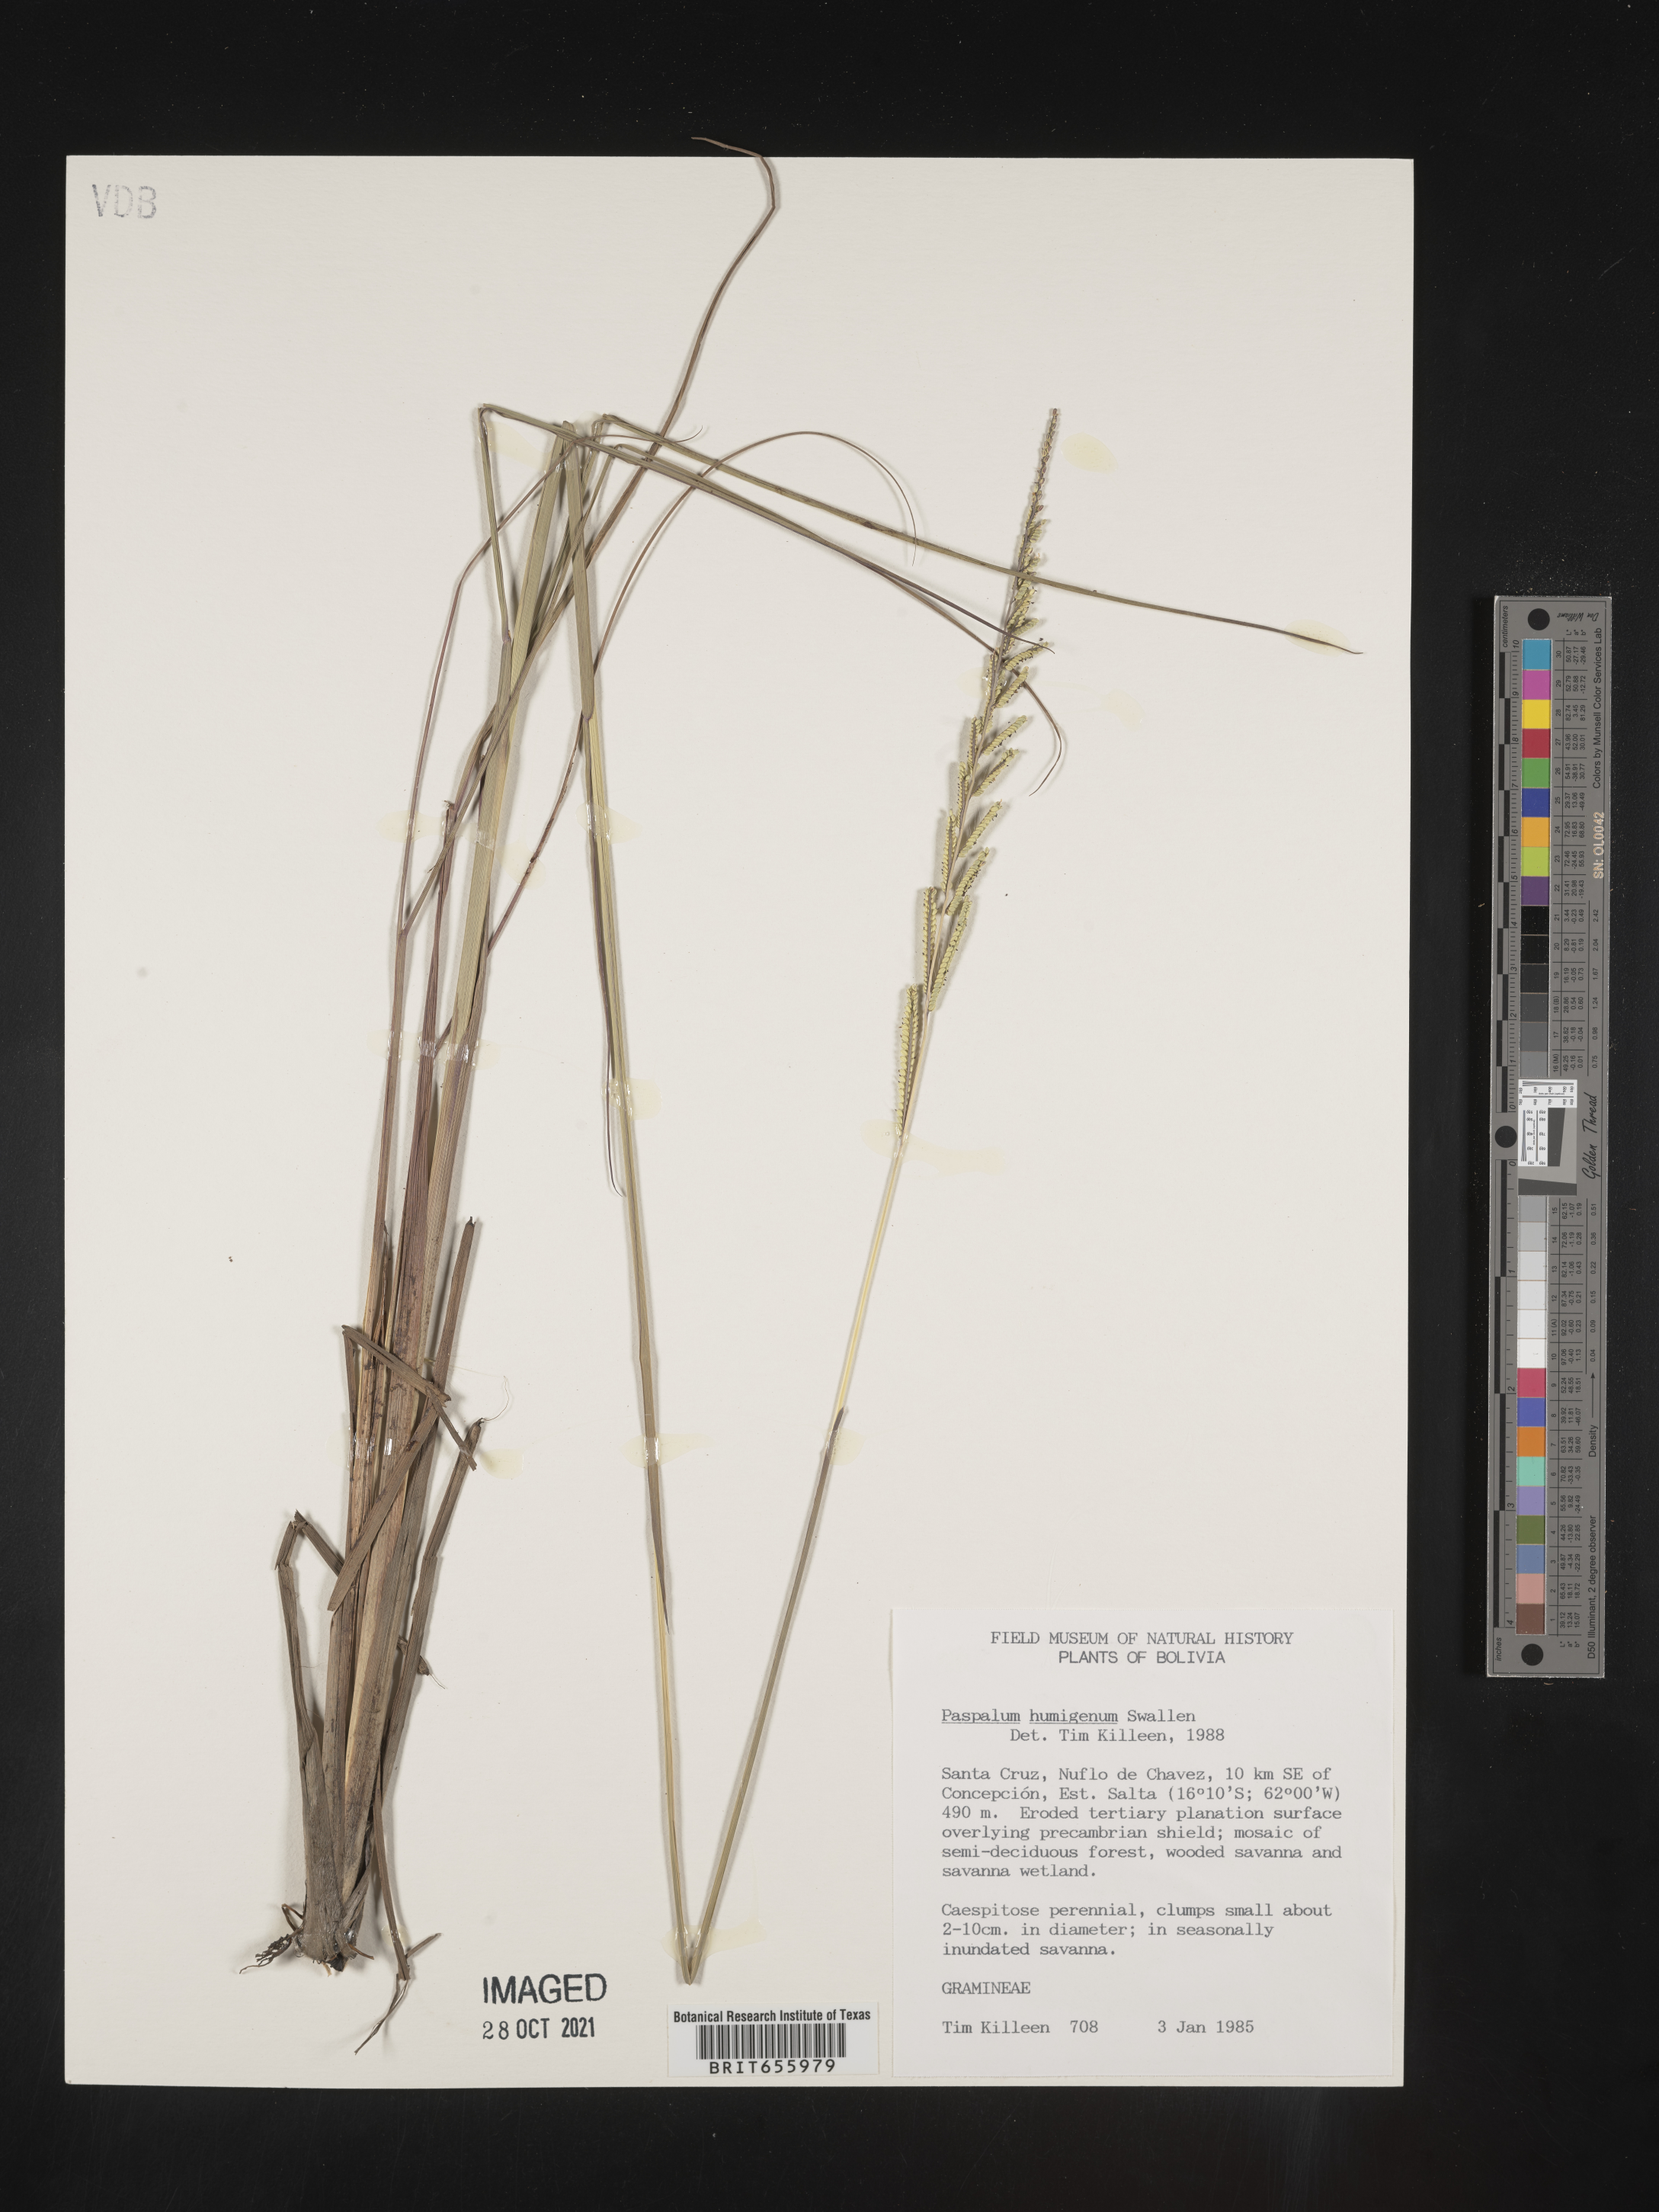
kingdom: Plantae
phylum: Tracheophyta
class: Liliopsida
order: Poales
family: Poaceae
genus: Paspalum
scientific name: Paspalum
